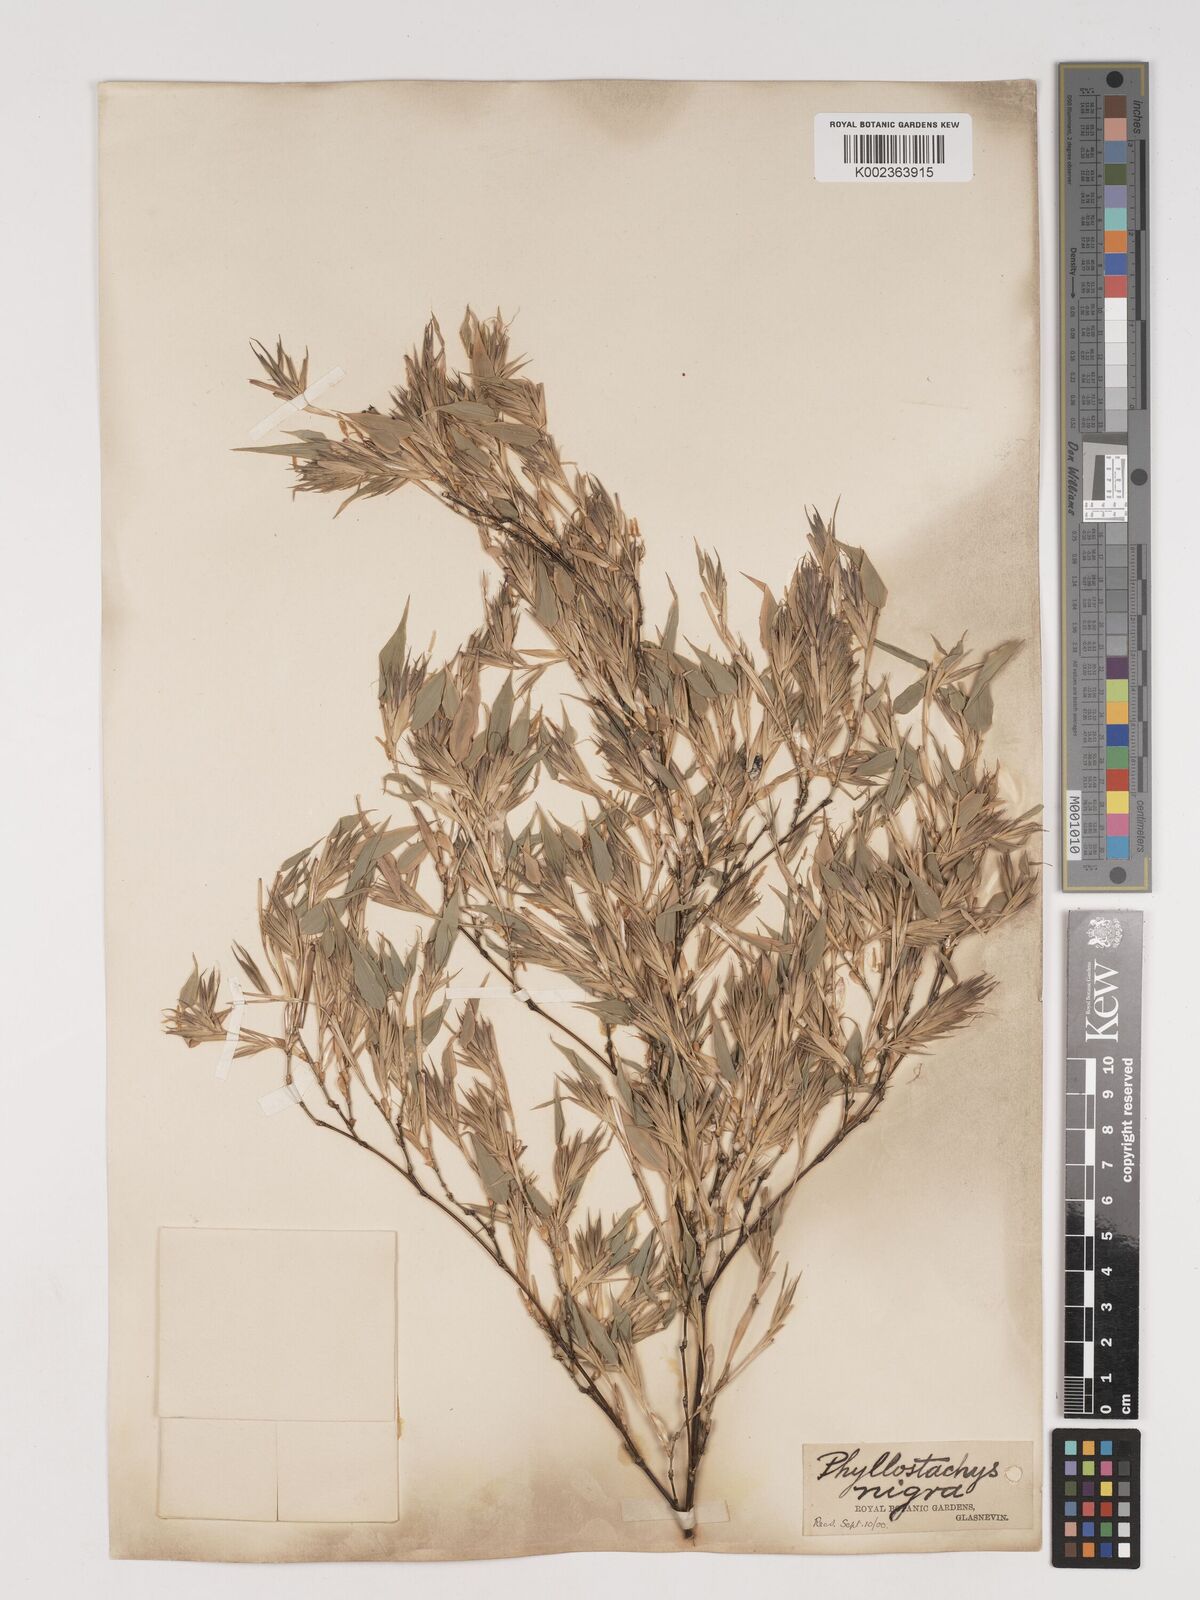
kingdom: Plantae
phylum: Tracheophyta
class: Liliopsida
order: Poales
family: Poaceae
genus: Phyllostachys
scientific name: Phyllostachys nigra
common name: Black bamboo
